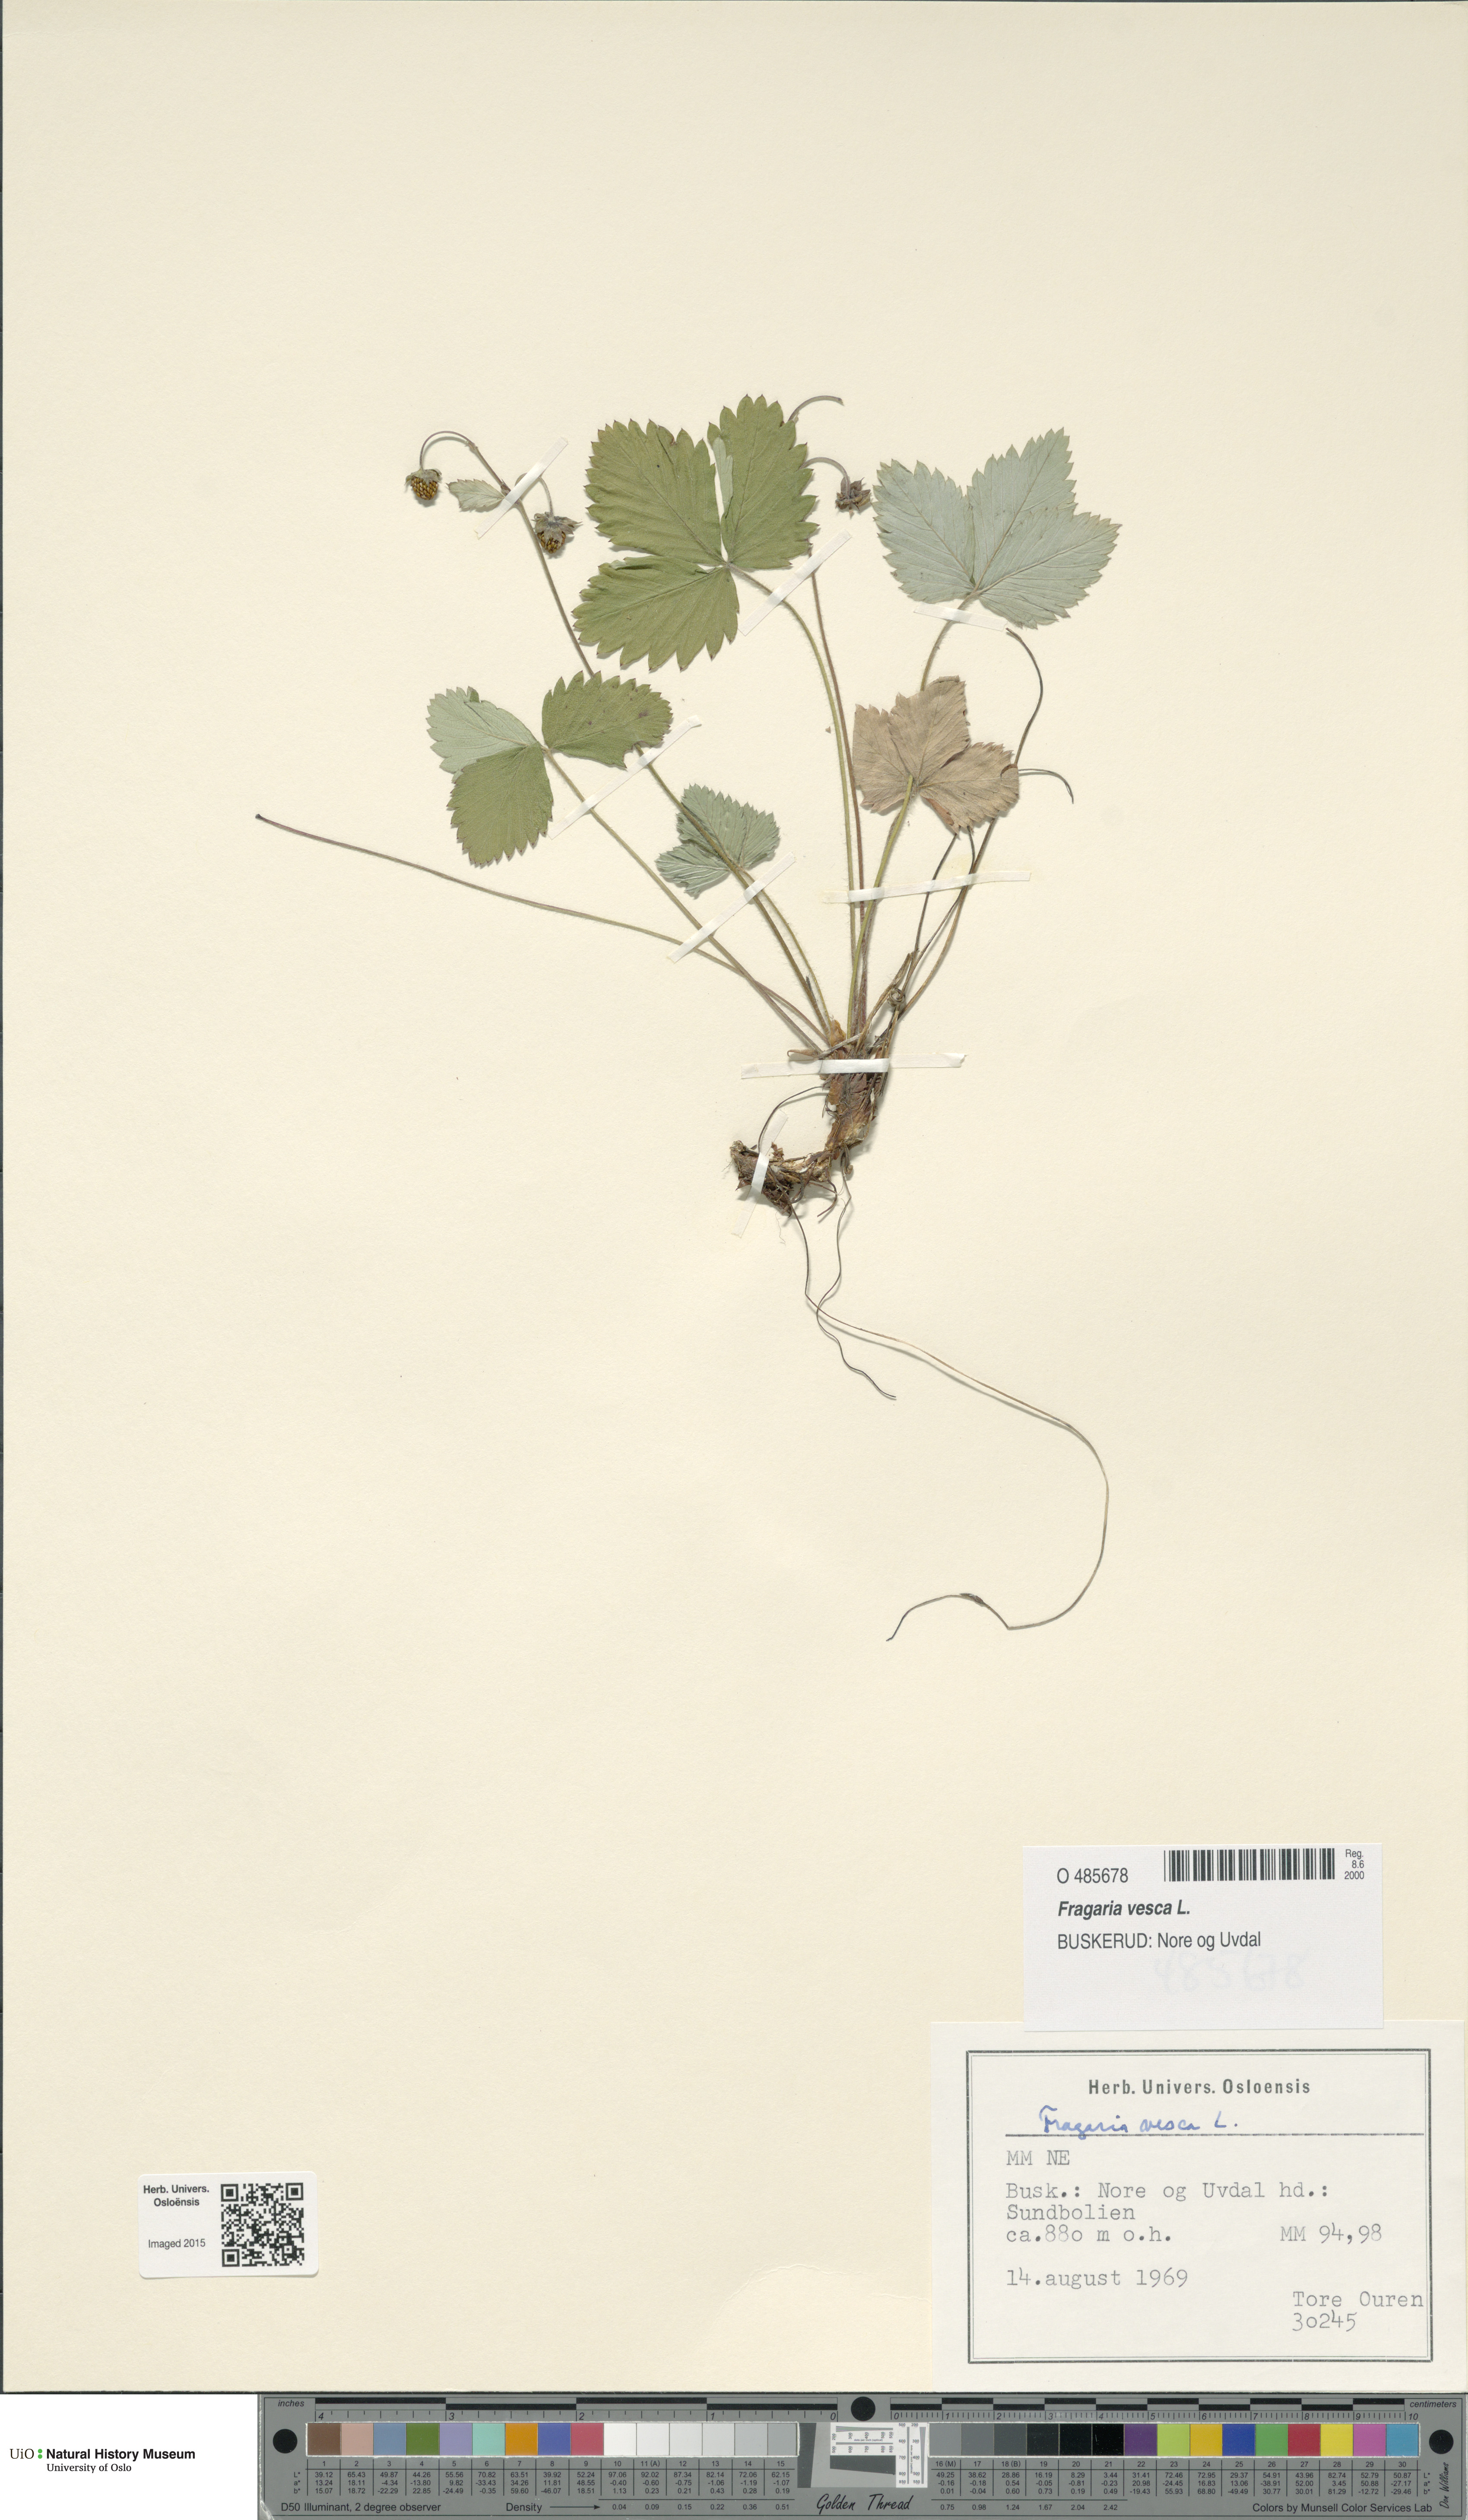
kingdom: Plantae
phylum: Tracheophyta
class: Magnoliopsida
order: Rosales
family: Rosaceae
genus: Fragaria
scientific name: Fragaria vesca
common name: Wild strawberry
